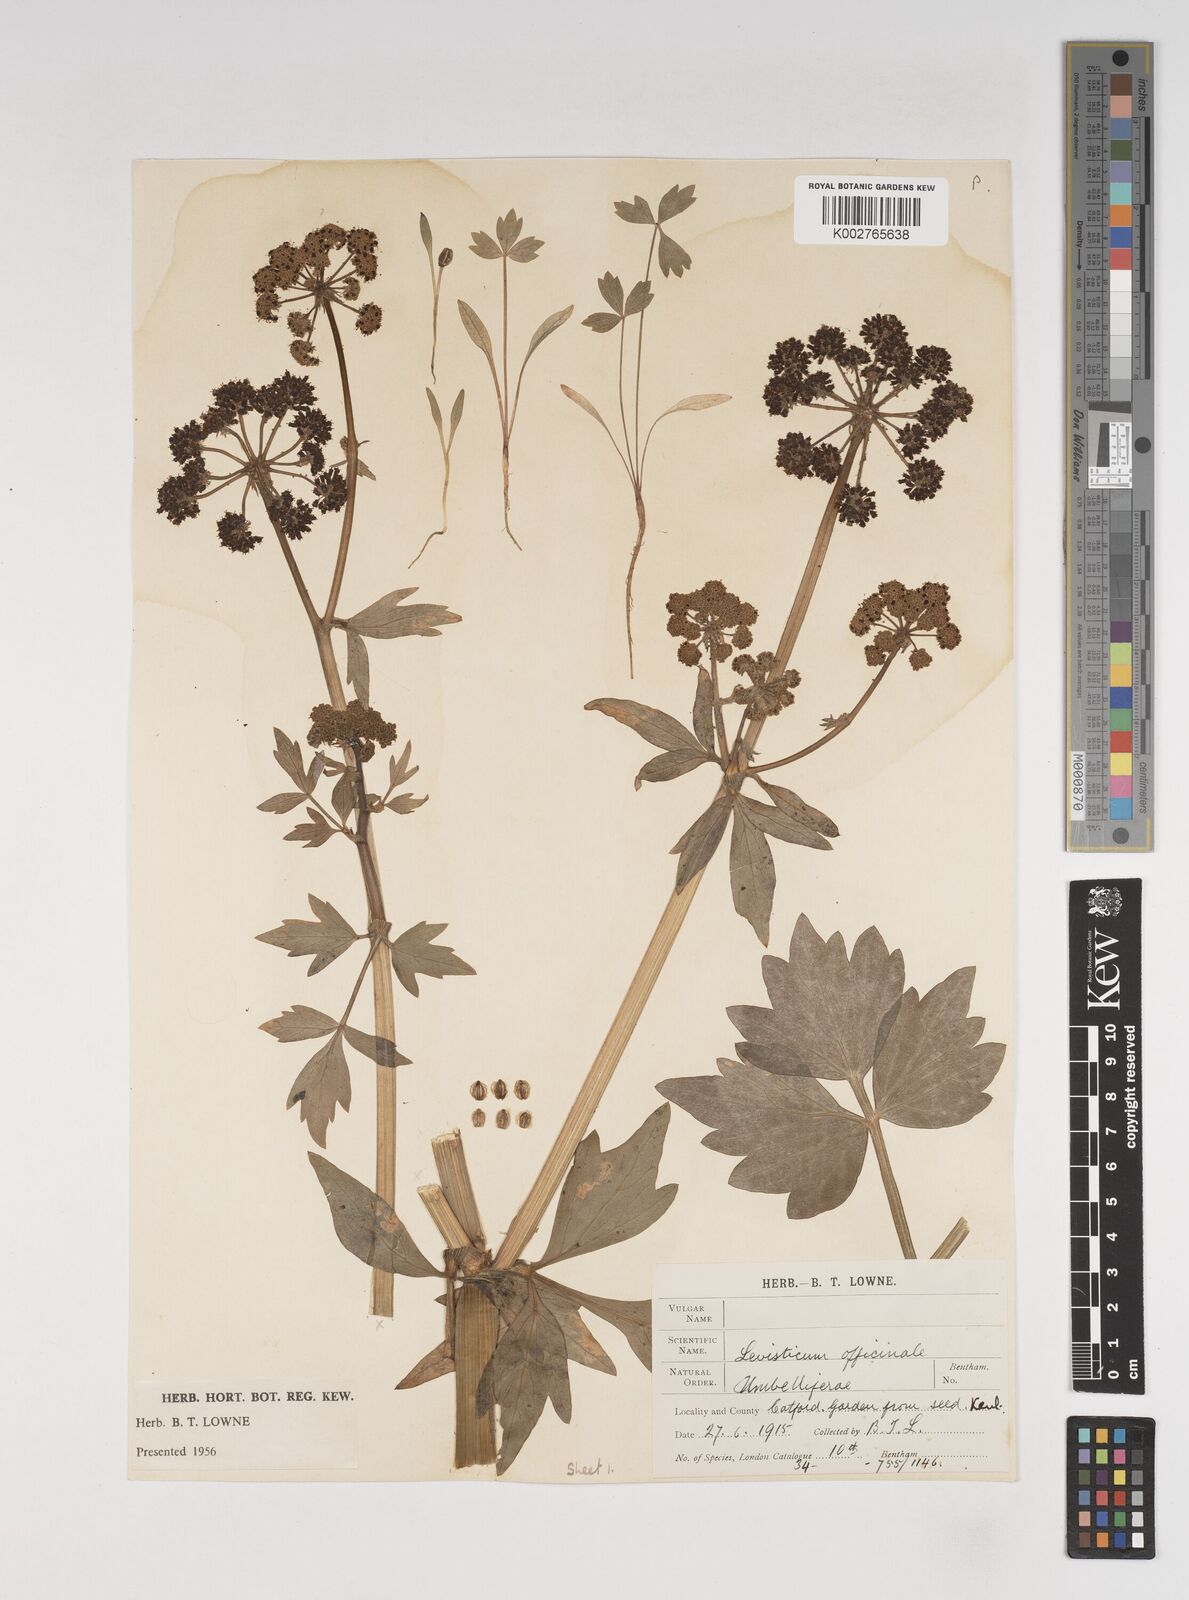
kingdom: Plantae
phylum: Tracheophyta
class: Magnoliopsida
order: Apiales
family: Apiaceae
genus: Levisticum
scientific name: Levisticum officinale
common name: Lovage
